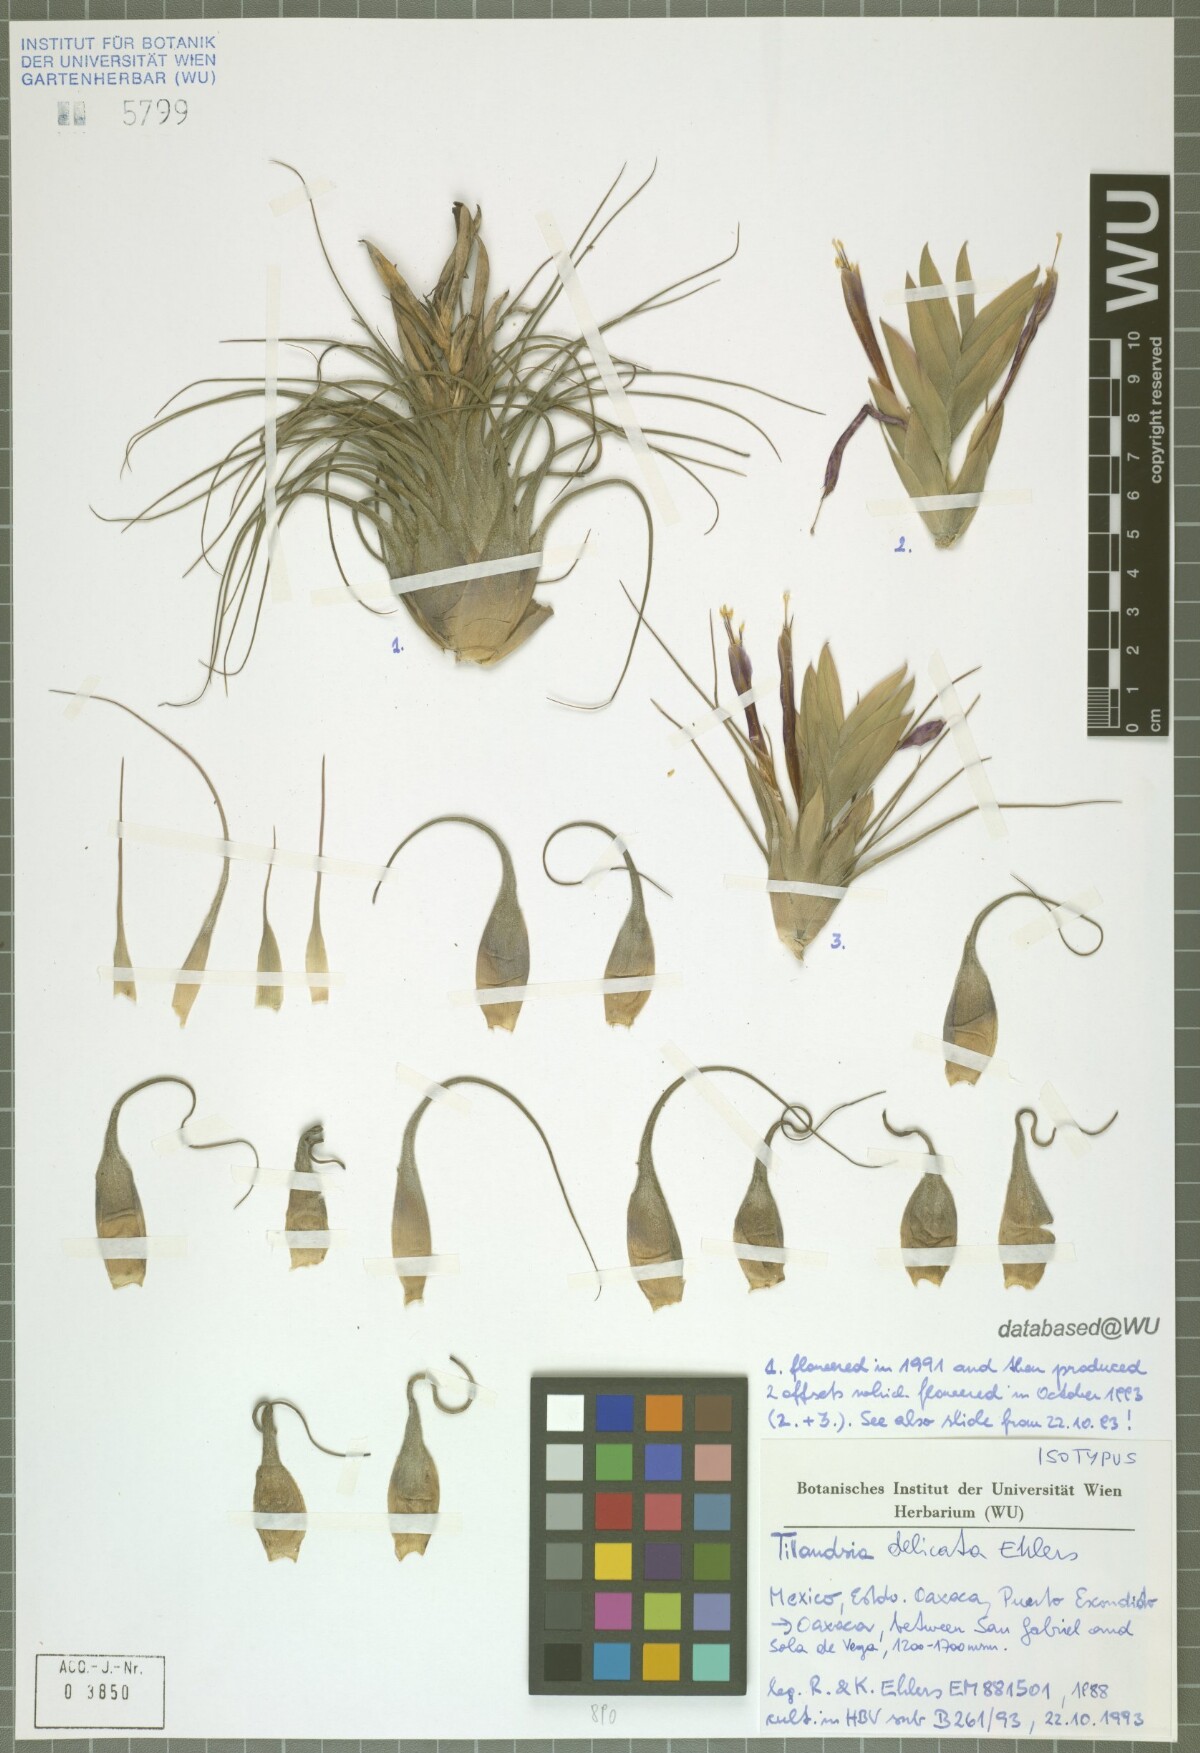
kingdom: Plantae
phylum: Tracheophyta
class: Liliopsida
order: Poales
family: Bromeliaceae
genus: Tillandsia
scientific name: Tillandsia delicata
